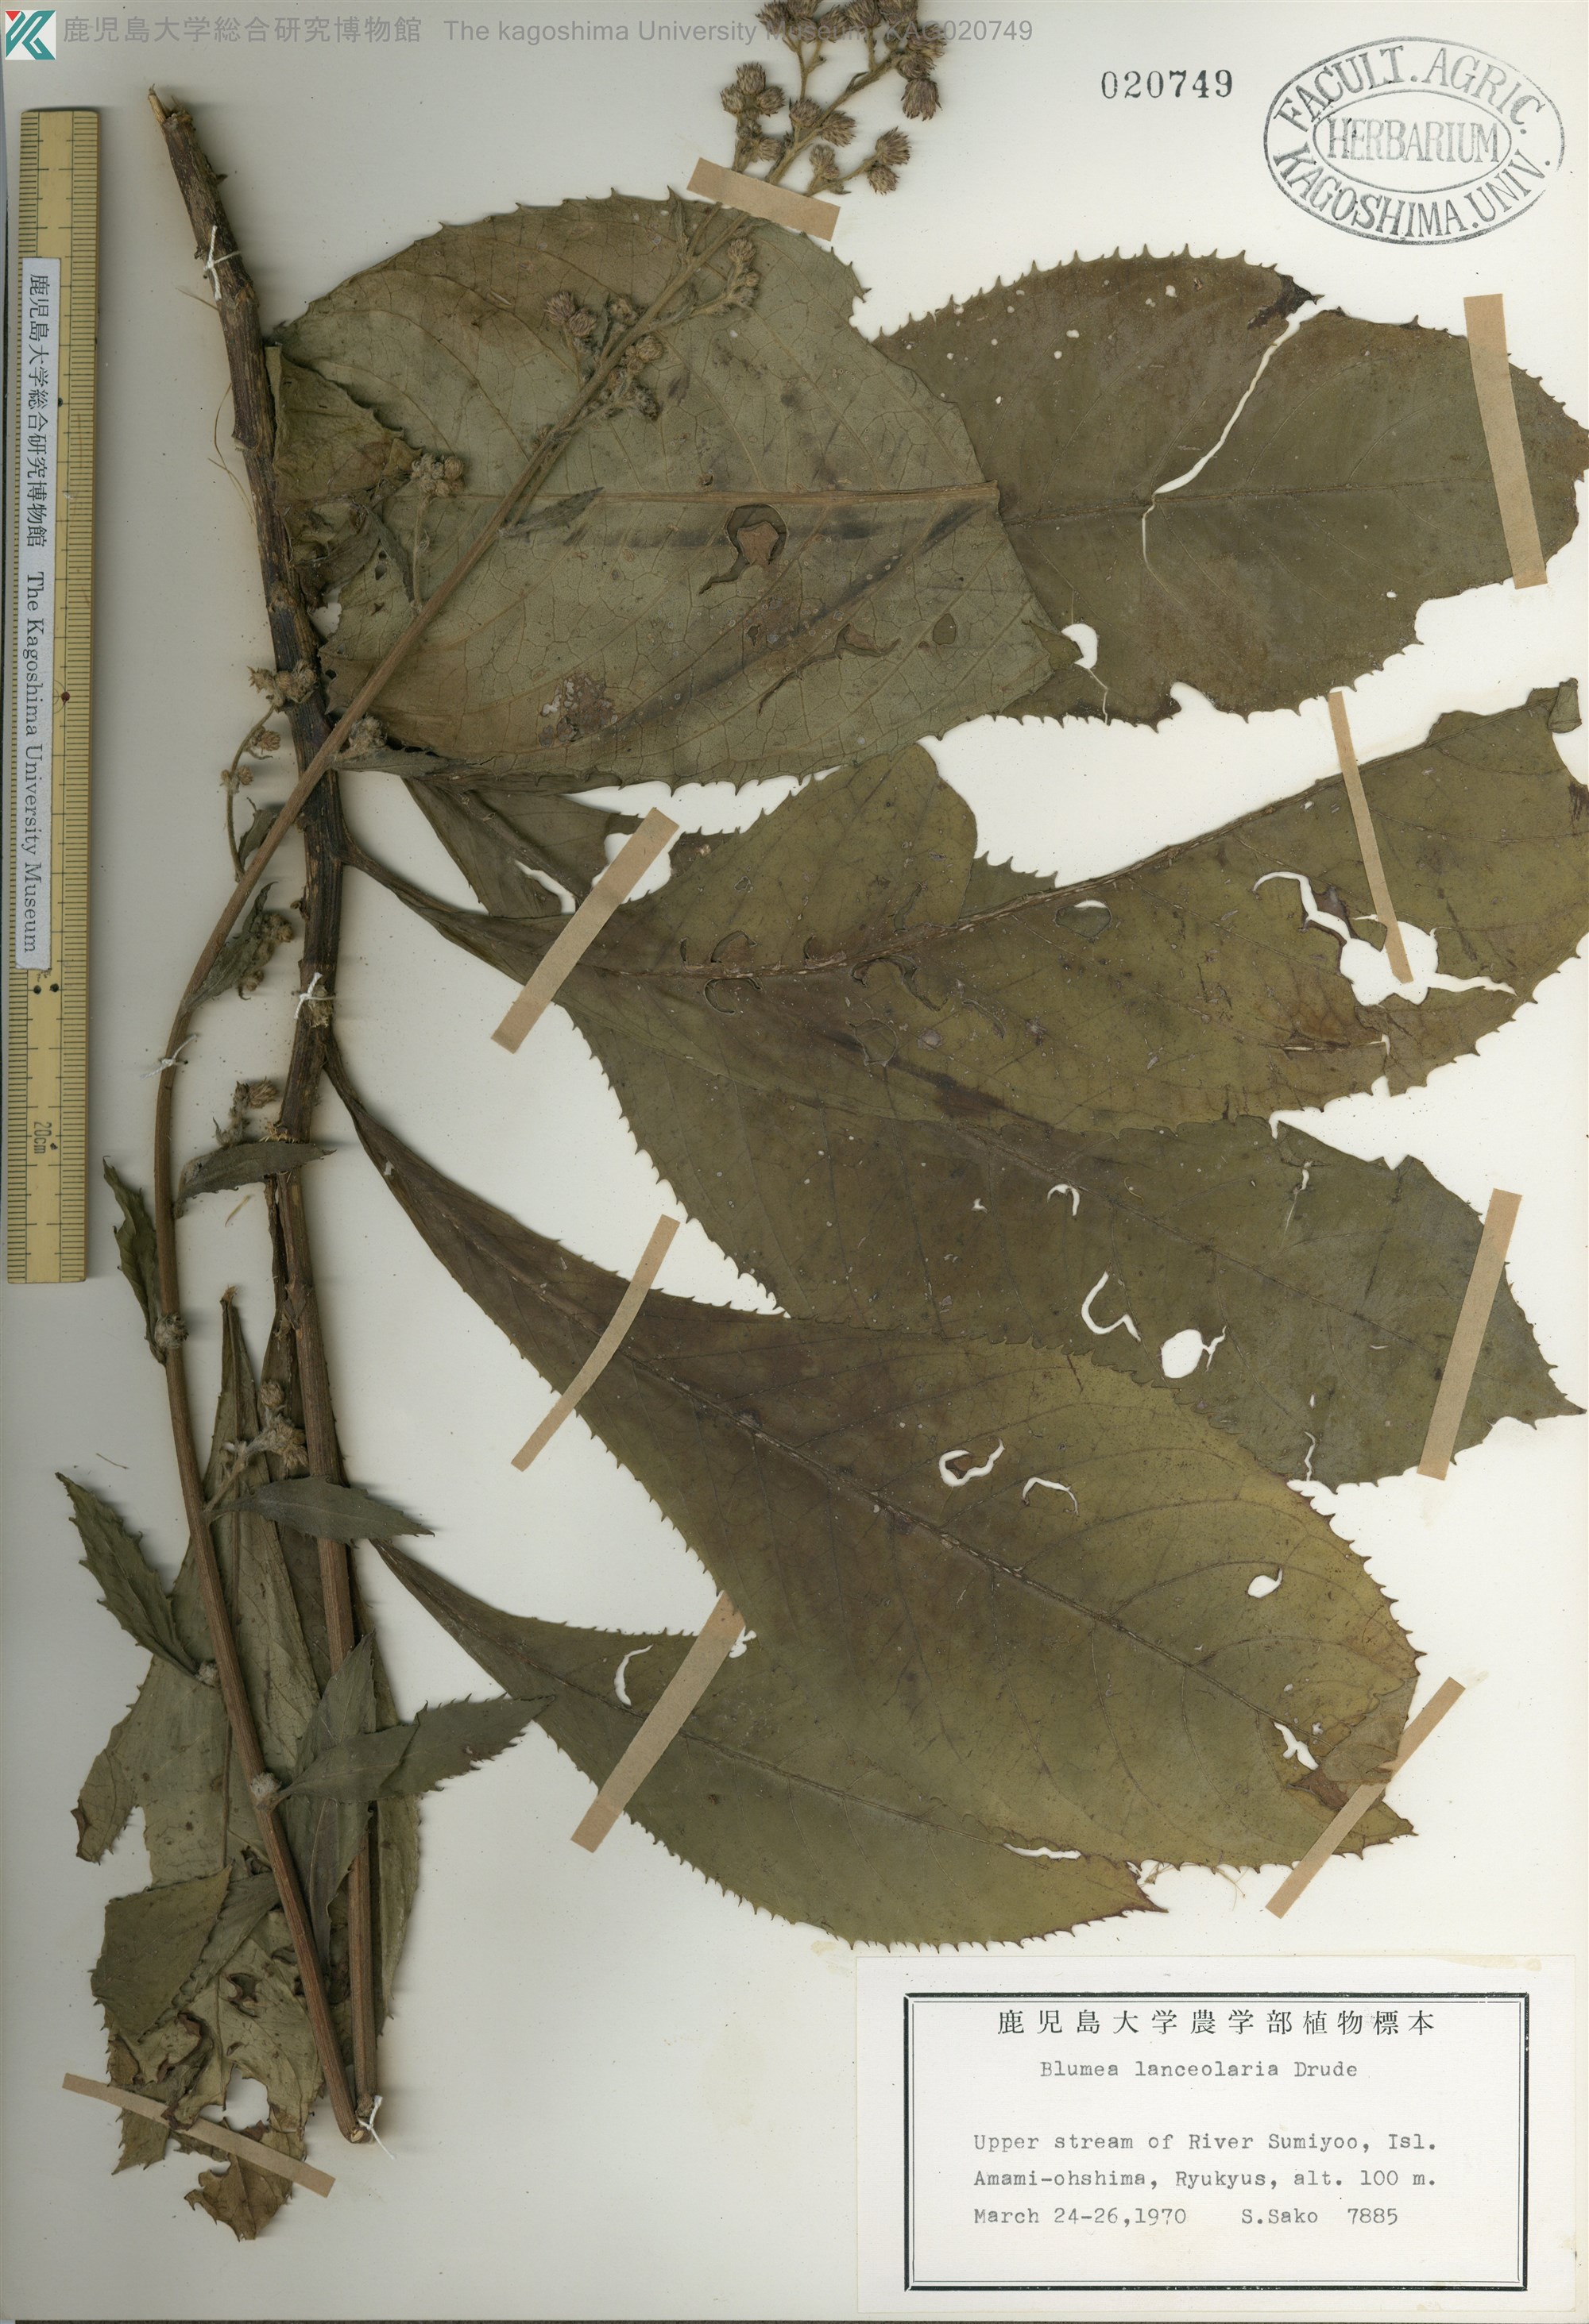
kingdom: Plantae
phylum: Tracheophyta
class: Magnoliopsida
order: Asterales
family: Asteraceae
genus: Blumea
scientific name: Blumea conspicua
